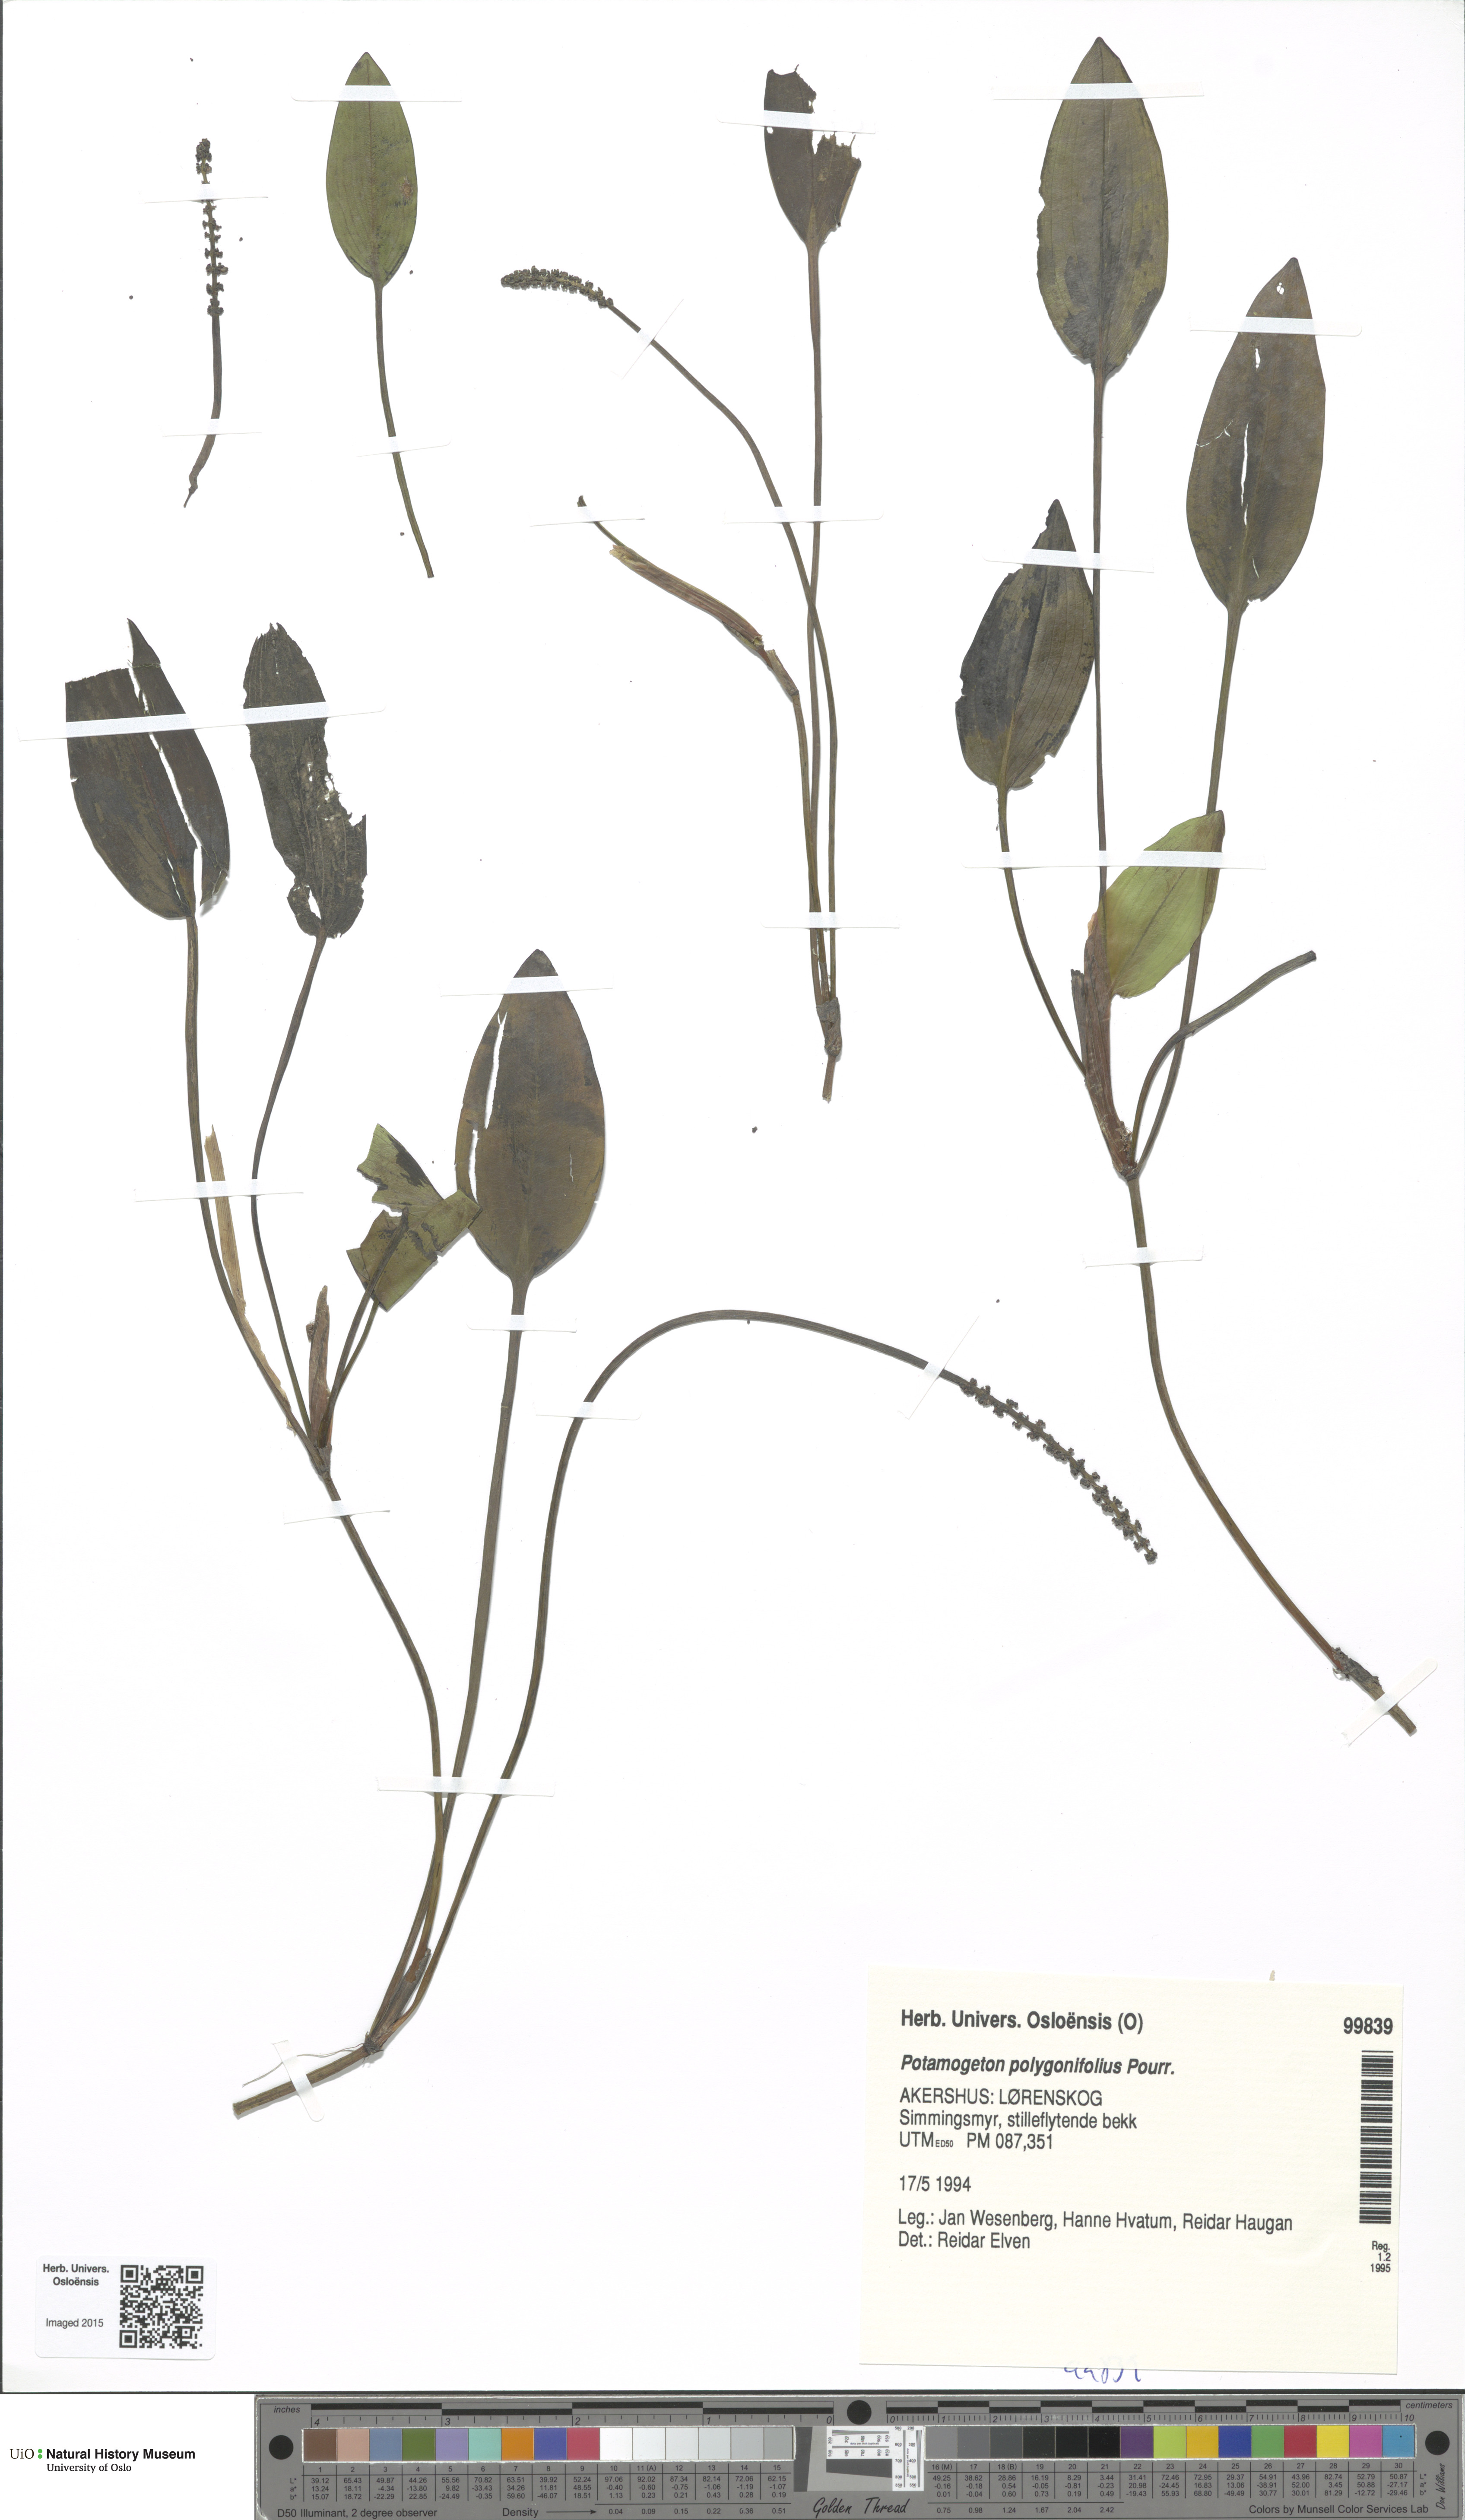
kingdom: Plantae
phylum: Tracheophyta
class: Liliopsida
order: Alismatales
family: Potamogetonaceae
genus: Potamogeton
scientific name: Potamogeton polygonifolius
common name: Bog pondweed
